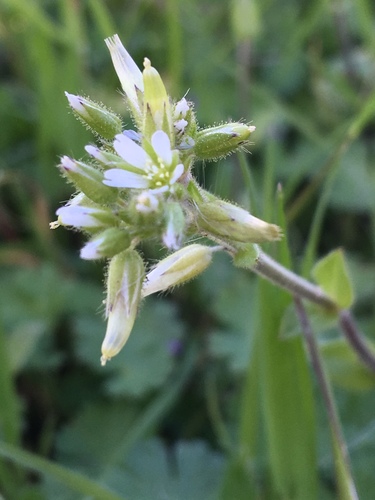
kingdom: Plantae
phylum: Tracheophyta
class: Magnoliopsida
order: Caryophyllales
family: Caryophyllaceae
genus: Cerastium
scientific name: Cerastium glomeratum
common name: Sticky chickweed
